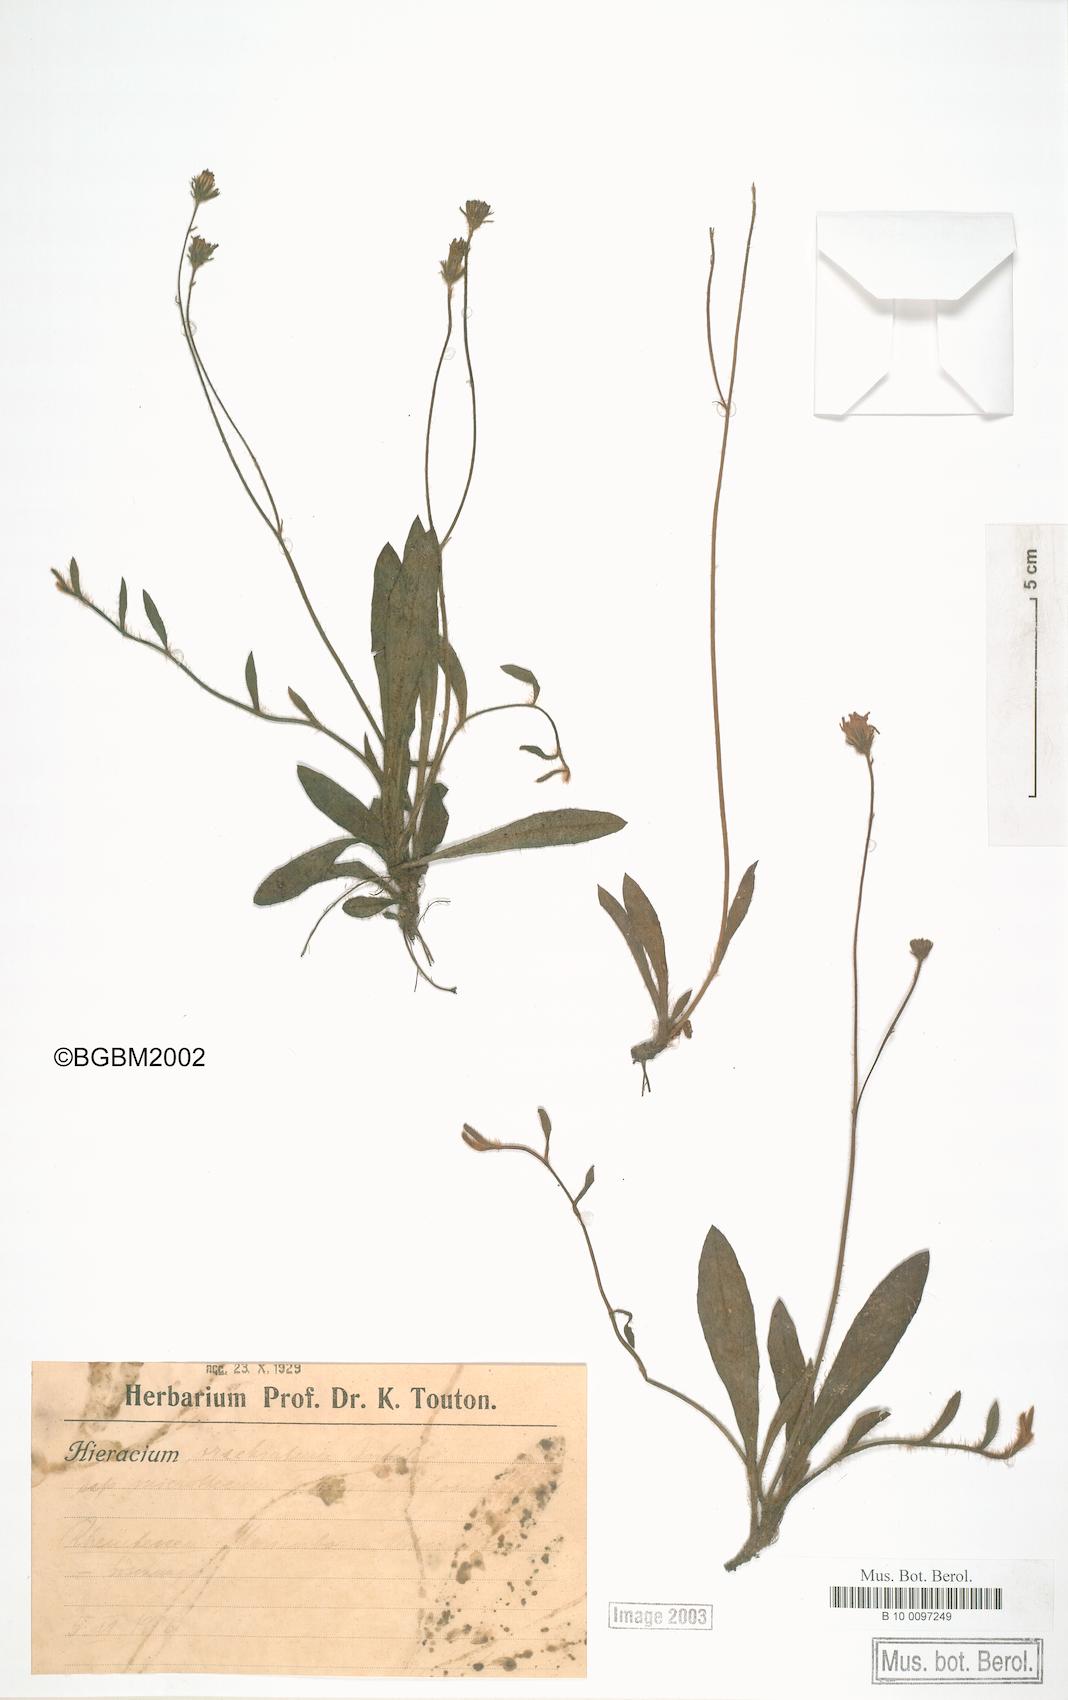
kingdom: Plantae
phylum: Tracheophyta
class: Magnoliopsida
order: Asterales
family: Asteraceae
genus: Pilosella
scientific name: Pilosella acutifolia
